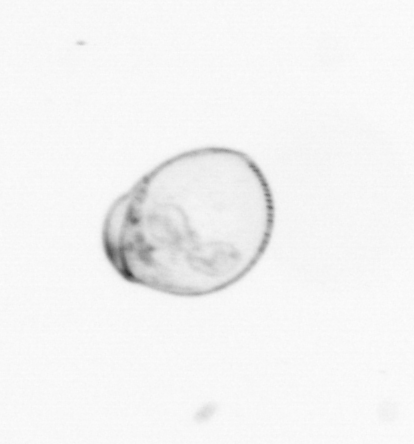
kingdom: Chromista
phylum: Myzozoa
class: Dinophyceae
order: Noctilucales
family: Noctilucaceae
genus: Noctiluca
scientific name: Noctiluca scintillans
